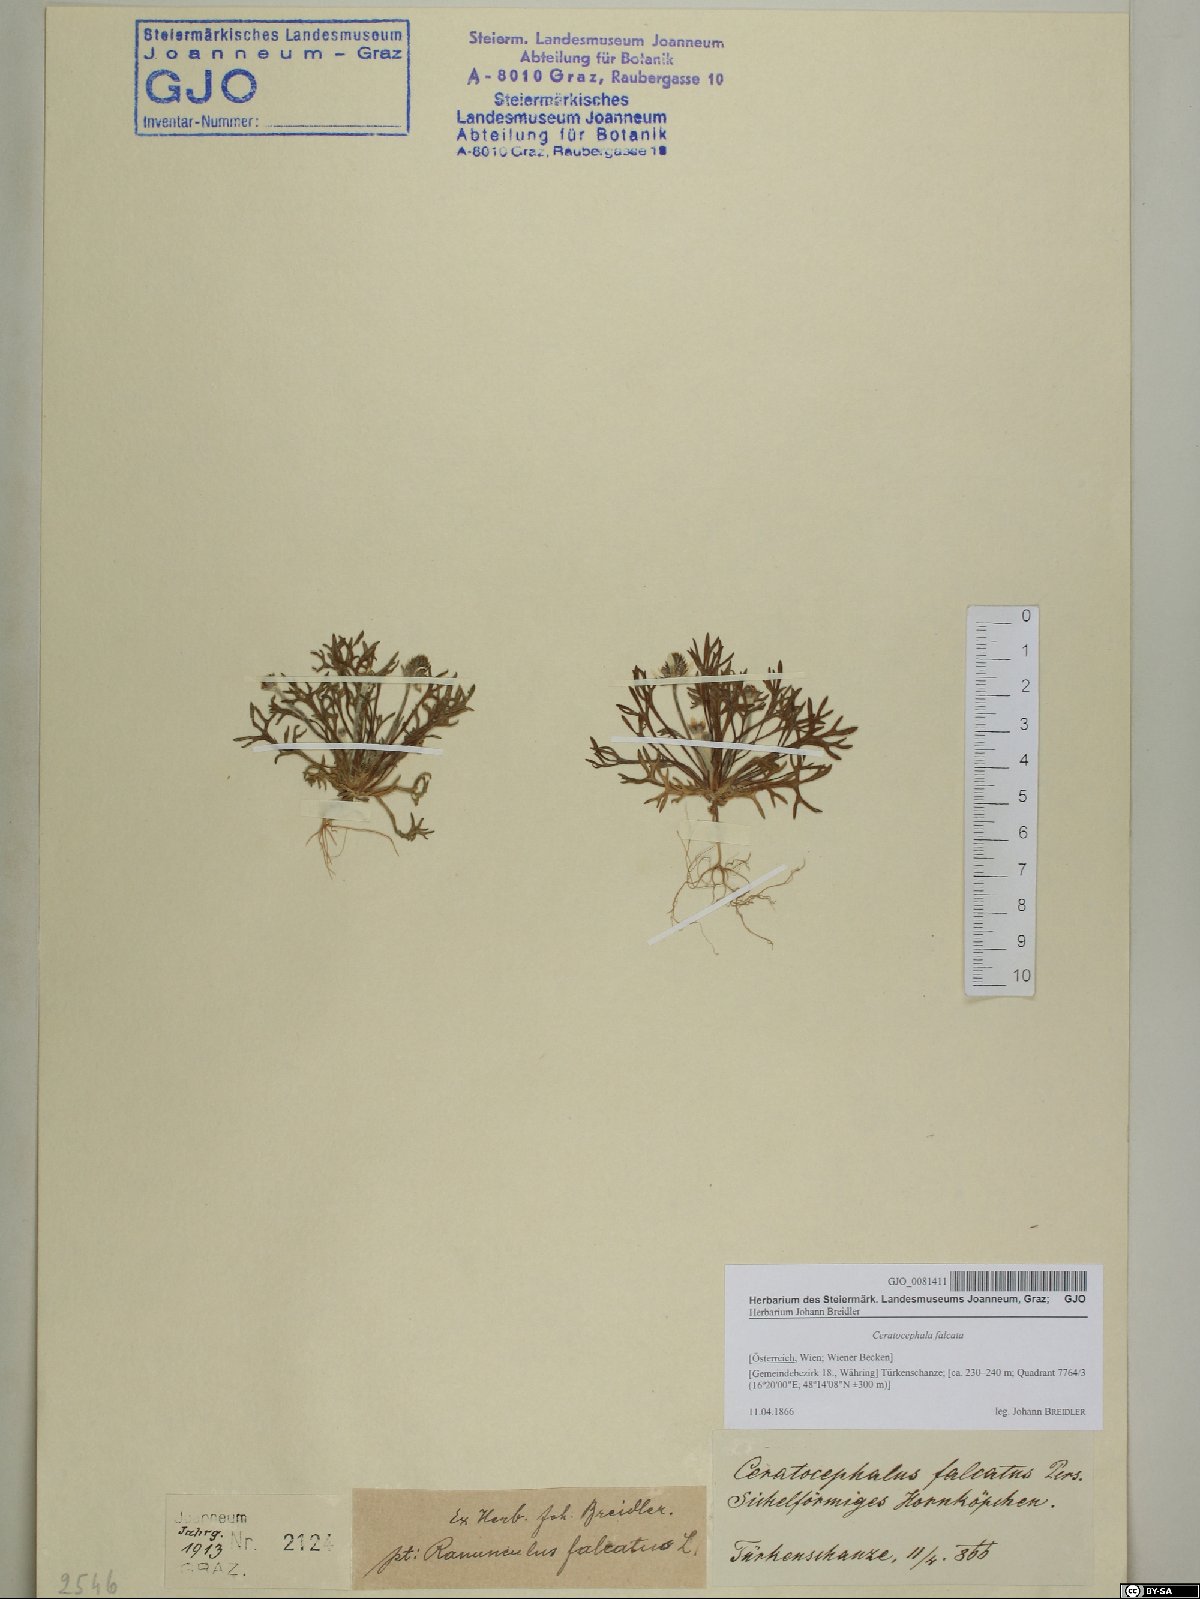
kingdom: Plantae
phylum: Tracheophyta
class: Magnoliopsida
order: Ranunculales
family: Ranunculaceae
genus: Ceratocephala
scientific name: Ceratocephala falcata
